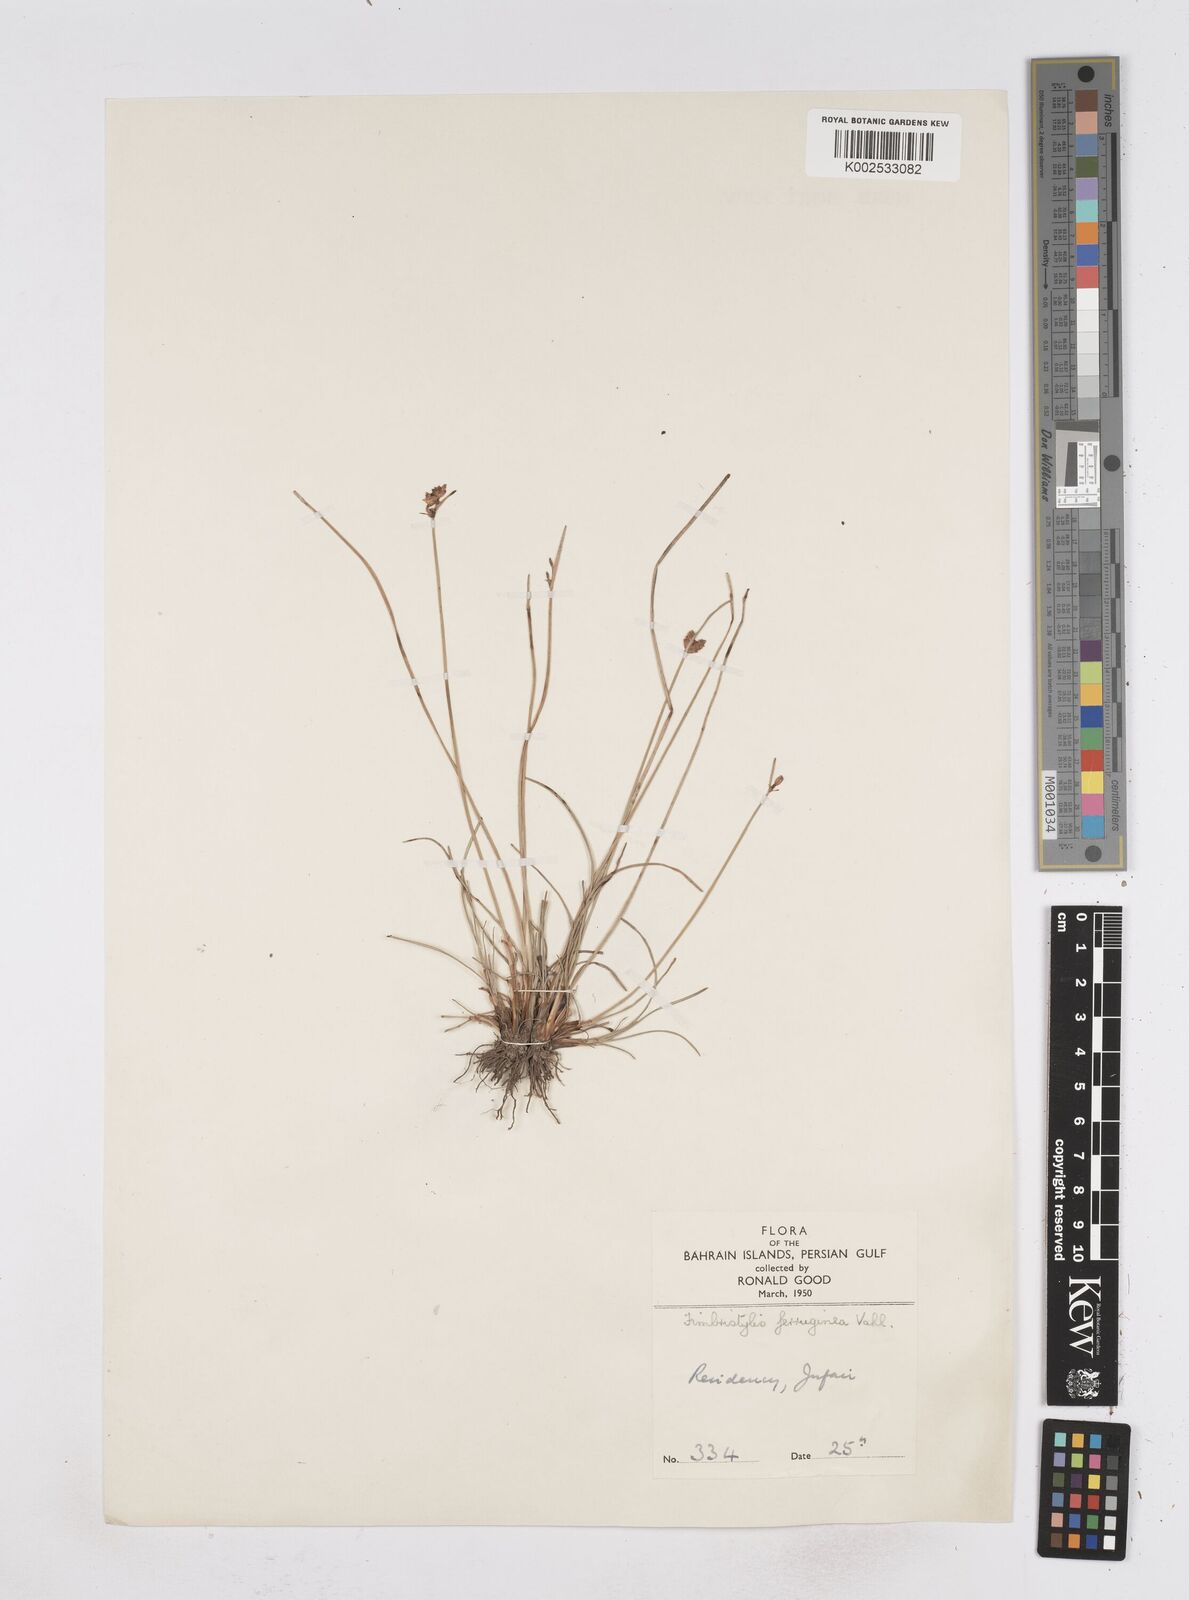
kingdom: Plantae
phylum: Tracheophyta
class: Liliopsida
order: Poales
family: Cyperaceae
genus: Fimbristylis
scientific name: Fimbristylis ferruginea
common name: West indian fimbry
